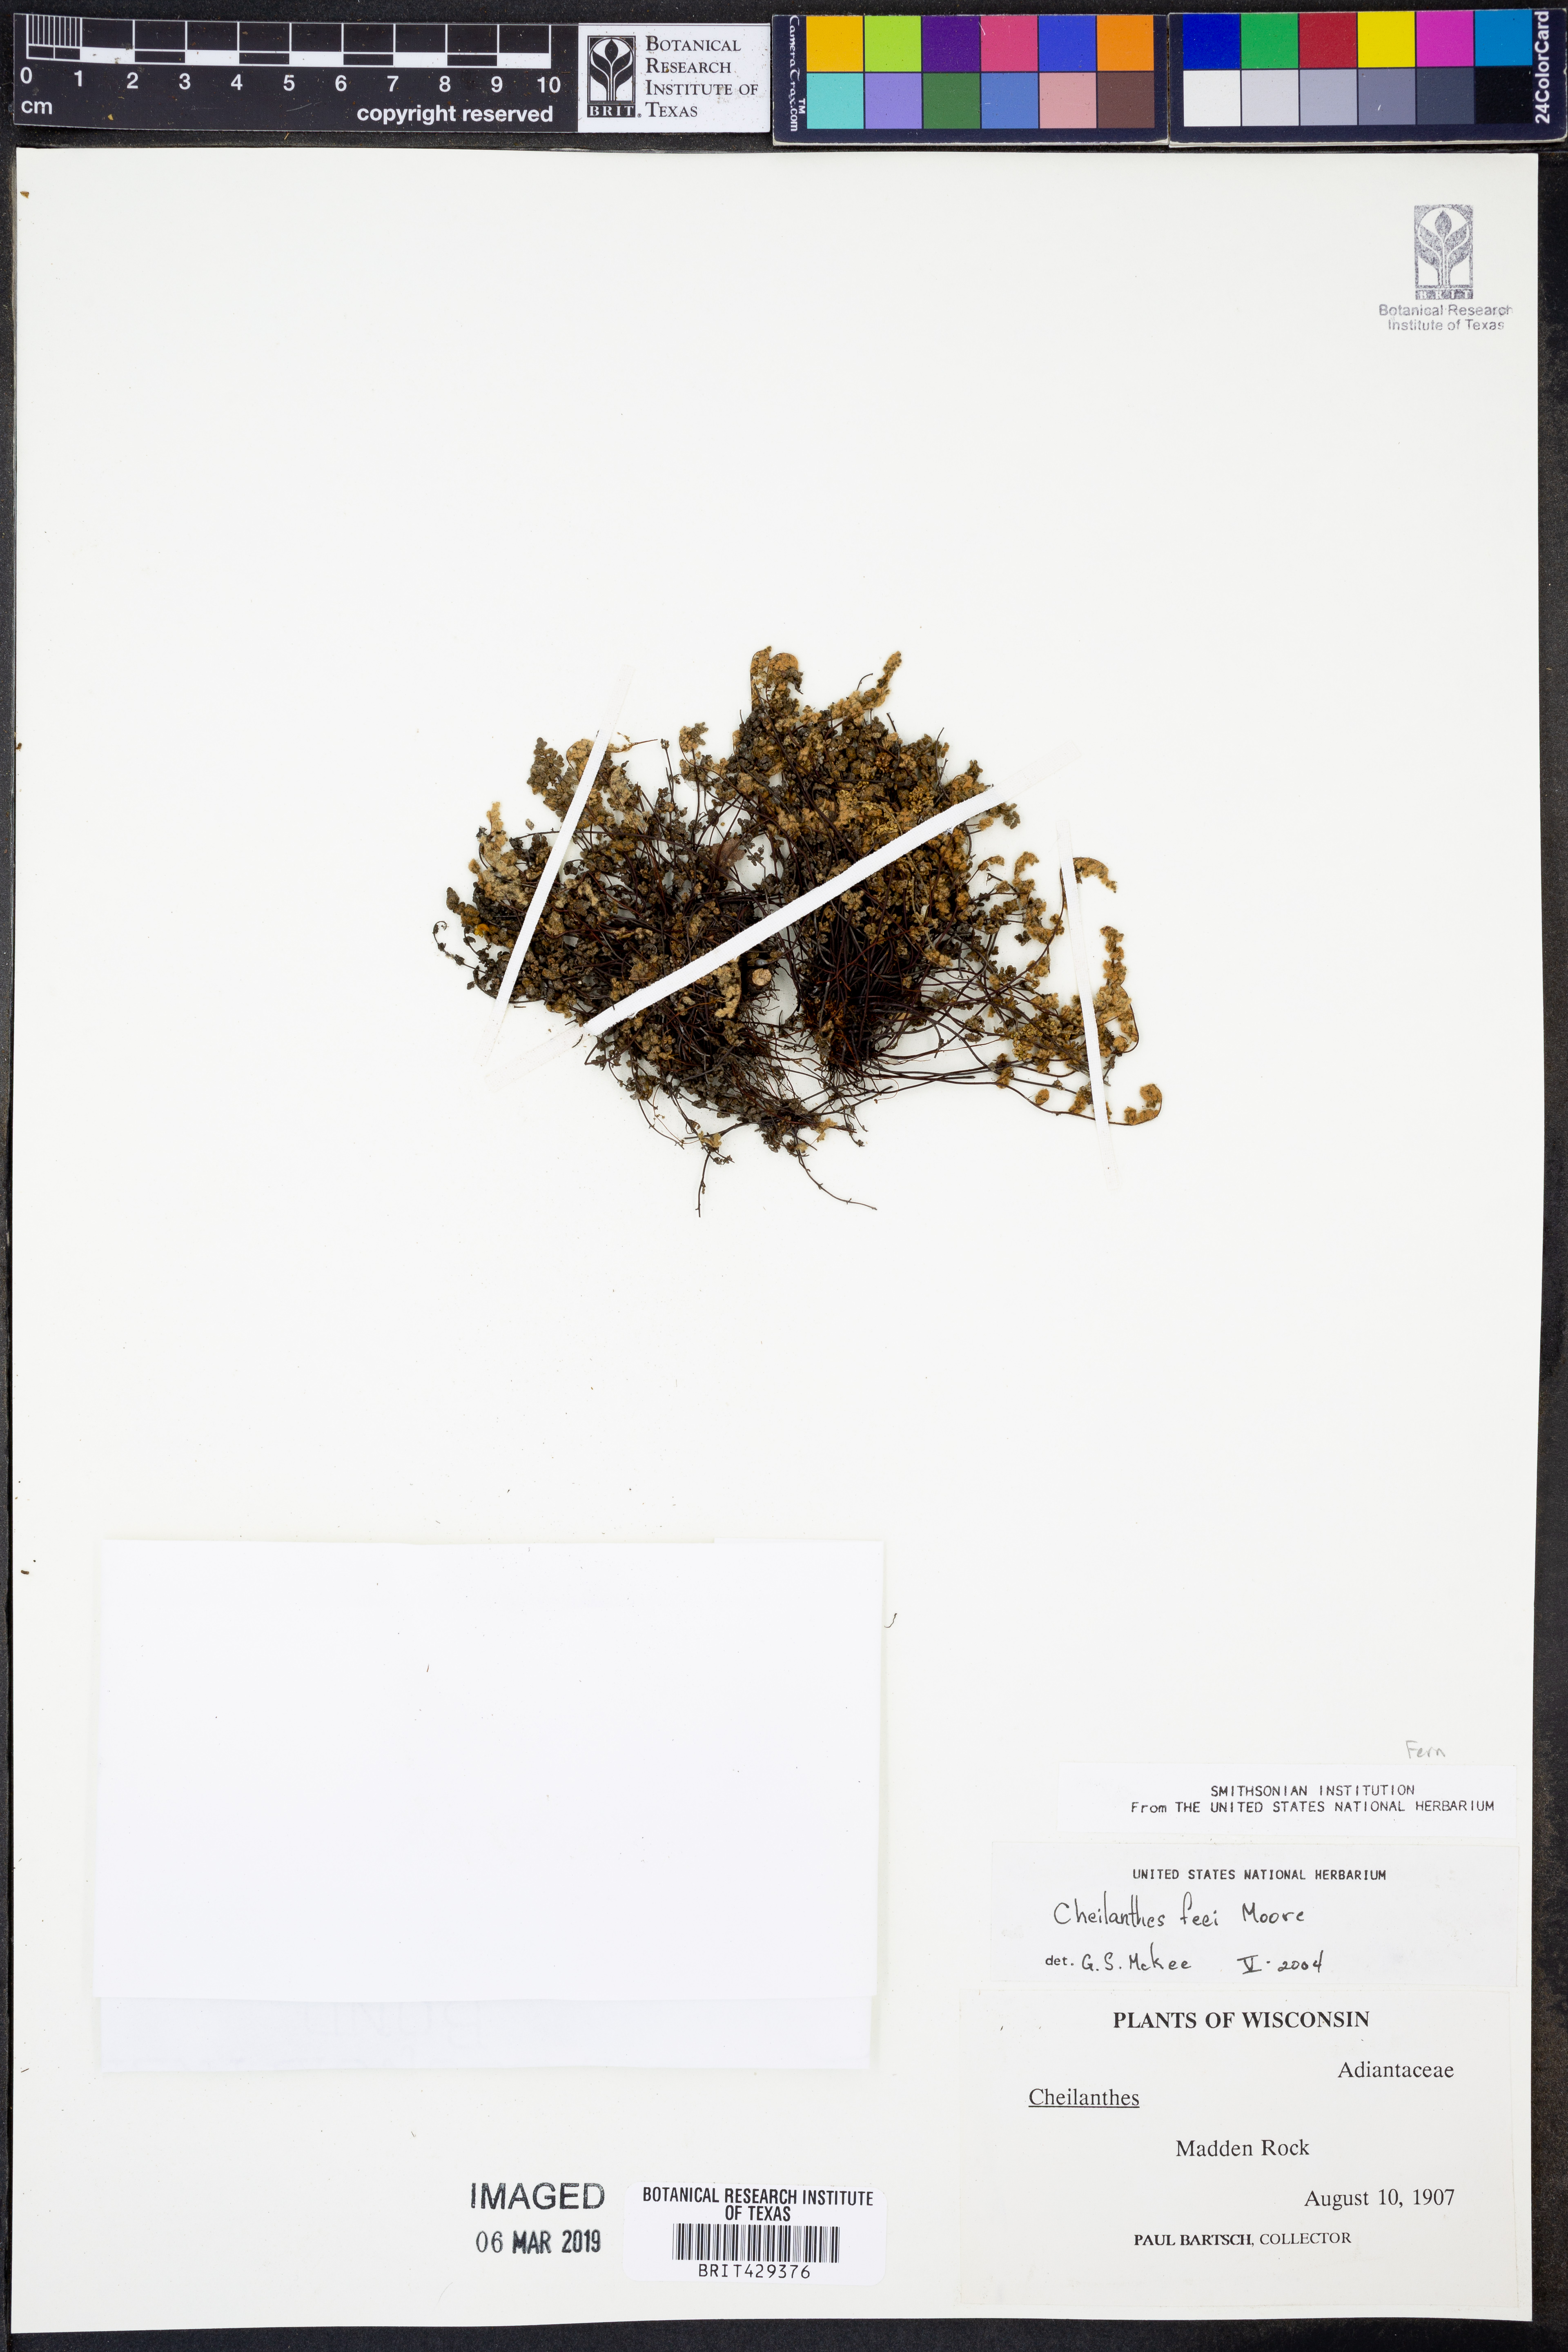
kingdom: Plantae
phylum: Tracheophyta
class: Polypodiopsida
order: Polypodiales
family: Pteridaceae
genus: Myriopteris
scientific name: Myriopteris gracilis
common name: Fee's lip fern
